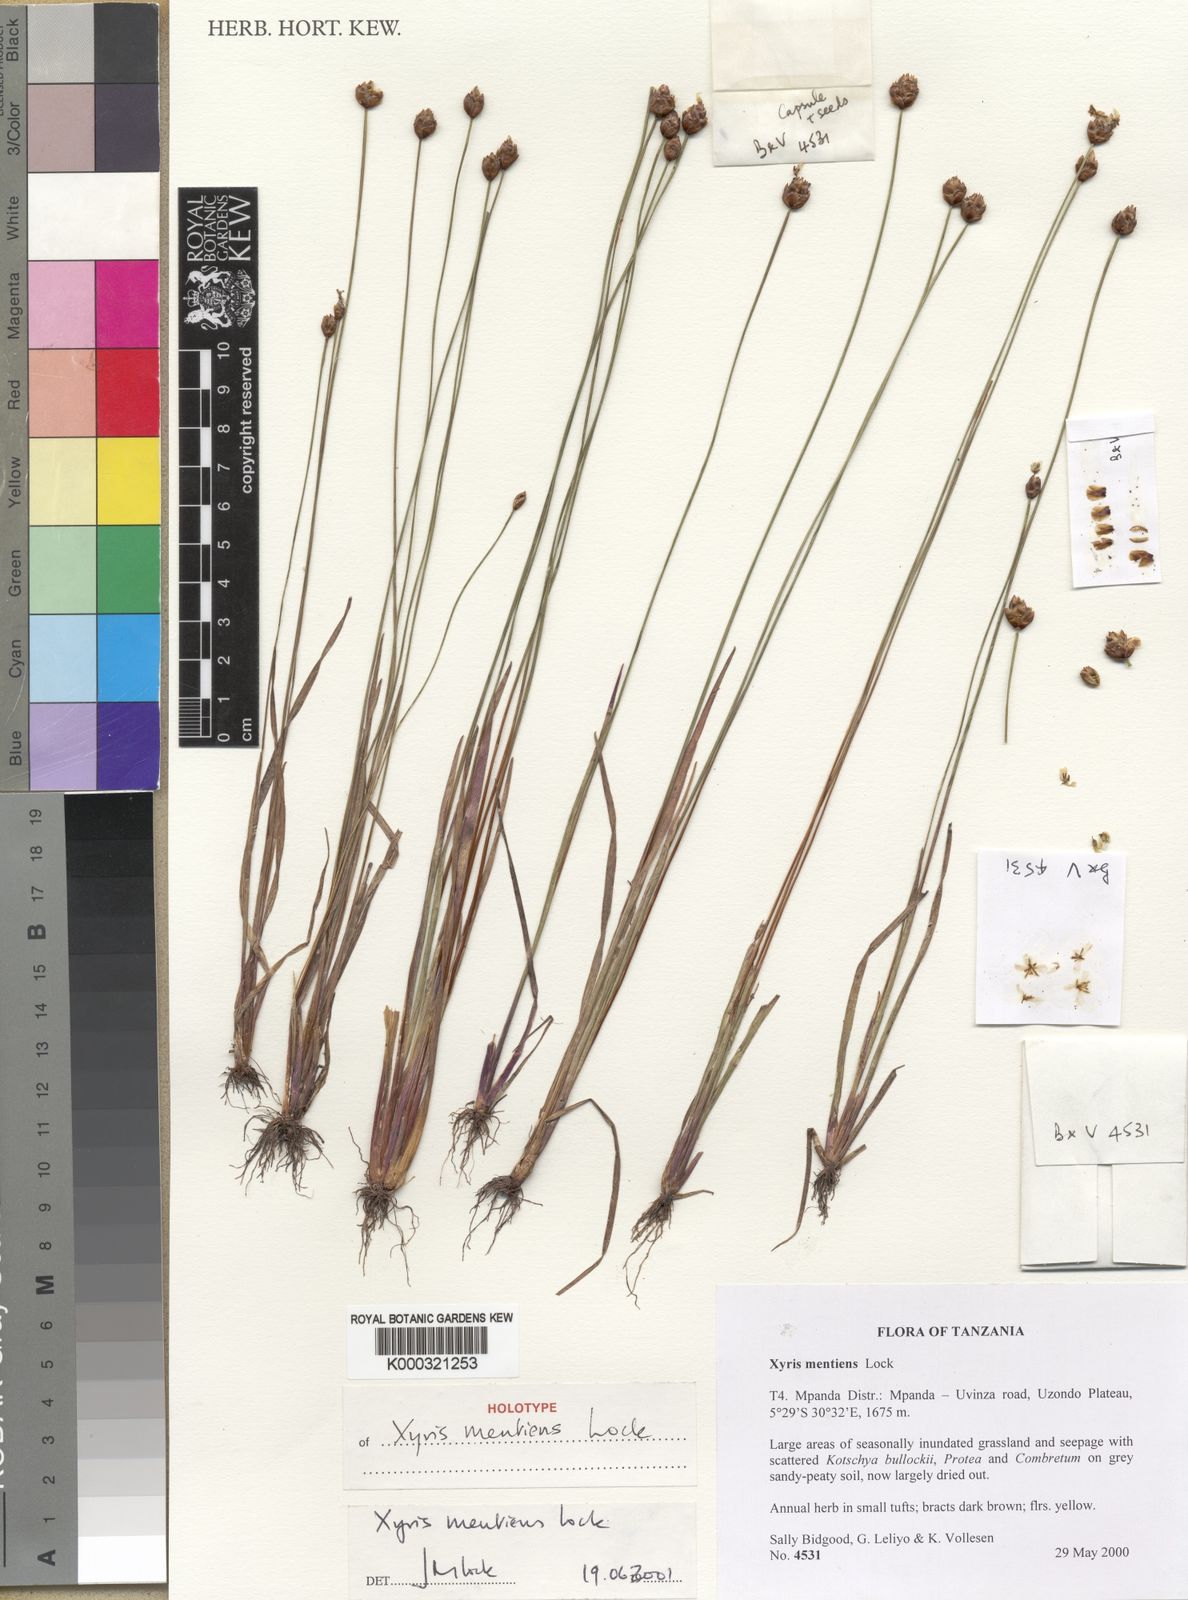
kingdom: Plantae
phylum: Tracheophyta
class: Liliopsida
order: Poales
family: Xyridaceae
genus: Xyris
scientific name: Xyris mentiens
